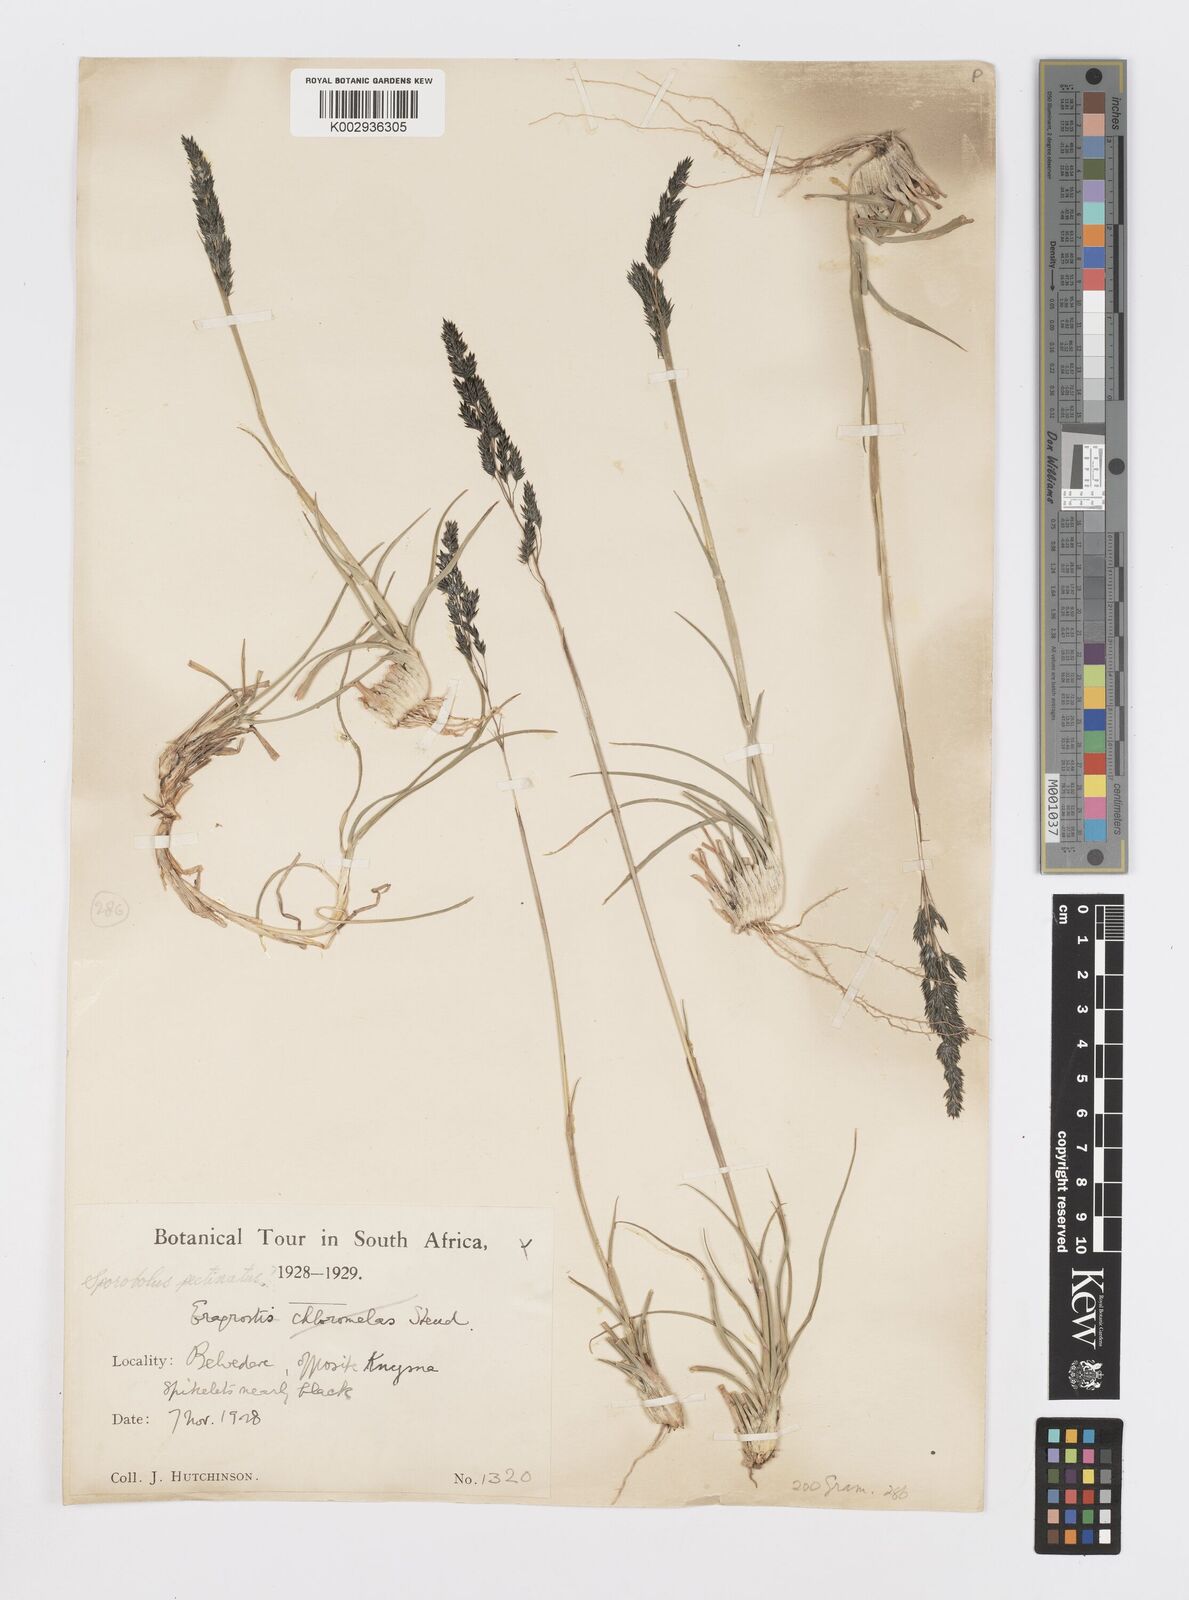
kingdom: Plantae
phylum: Tracheophyta
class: Liliopsida
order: Poales
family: Poaceae
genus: Sporobolus
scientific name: Sporobolus pectinatus
